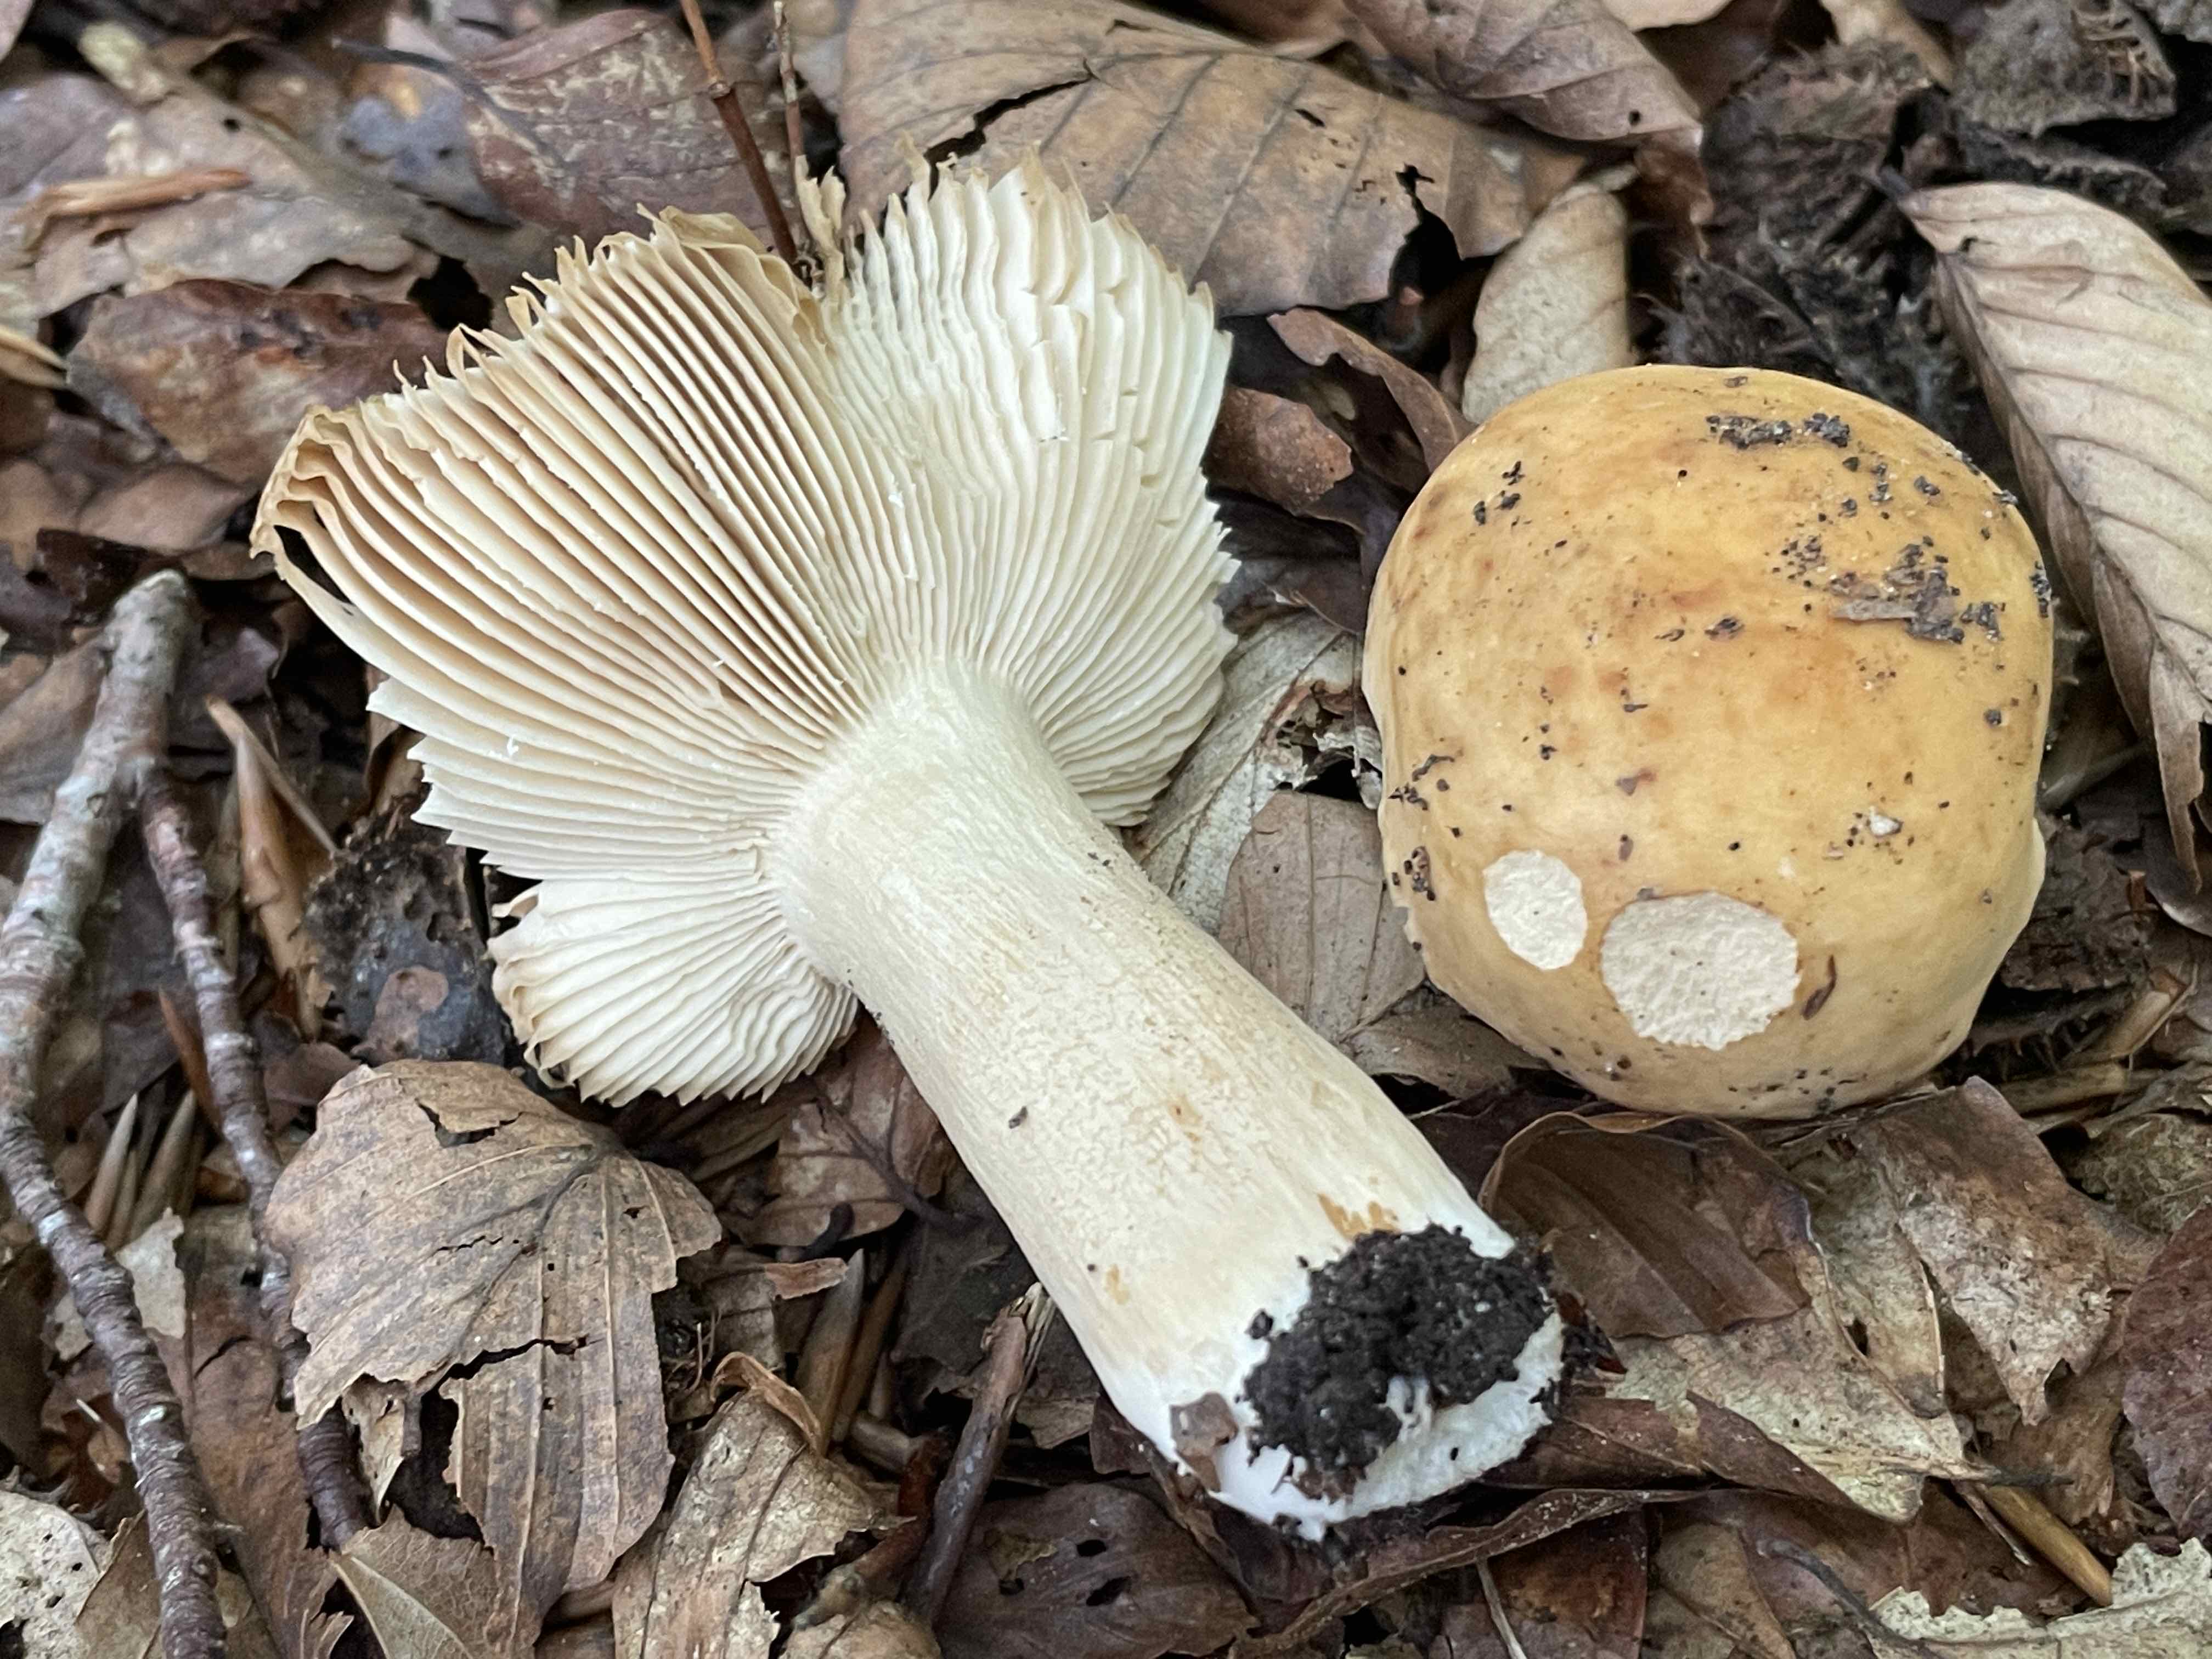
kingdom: Fungi
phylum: Basidiomycota
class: Agaricomycetes
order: Russulales
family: Russulaceae
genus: Russula
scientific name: Russula fellea
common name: galde-skørhat
